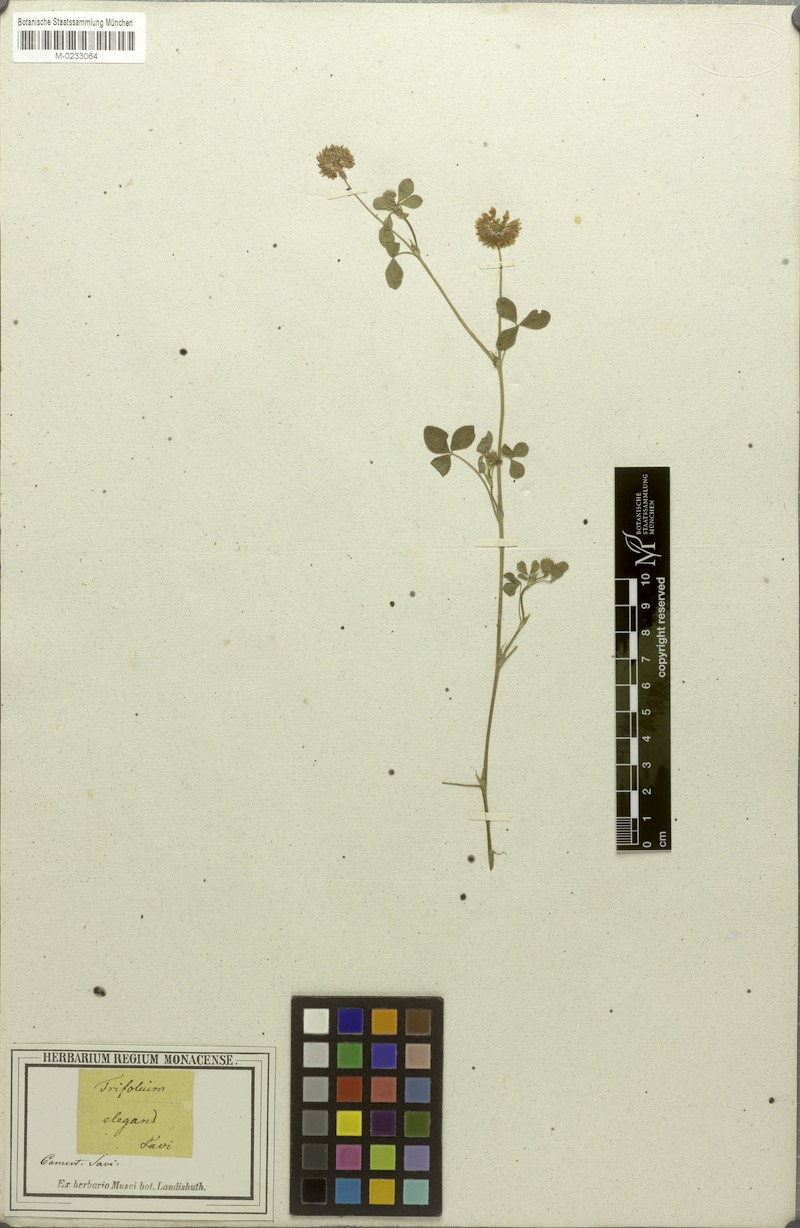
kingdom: Plantae
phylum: Tracheophyta
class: Magnoliopsida
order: Fabales
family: Fabaceae
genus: Trifolium
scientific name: Trifolium hybridum
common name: Alsike clover
